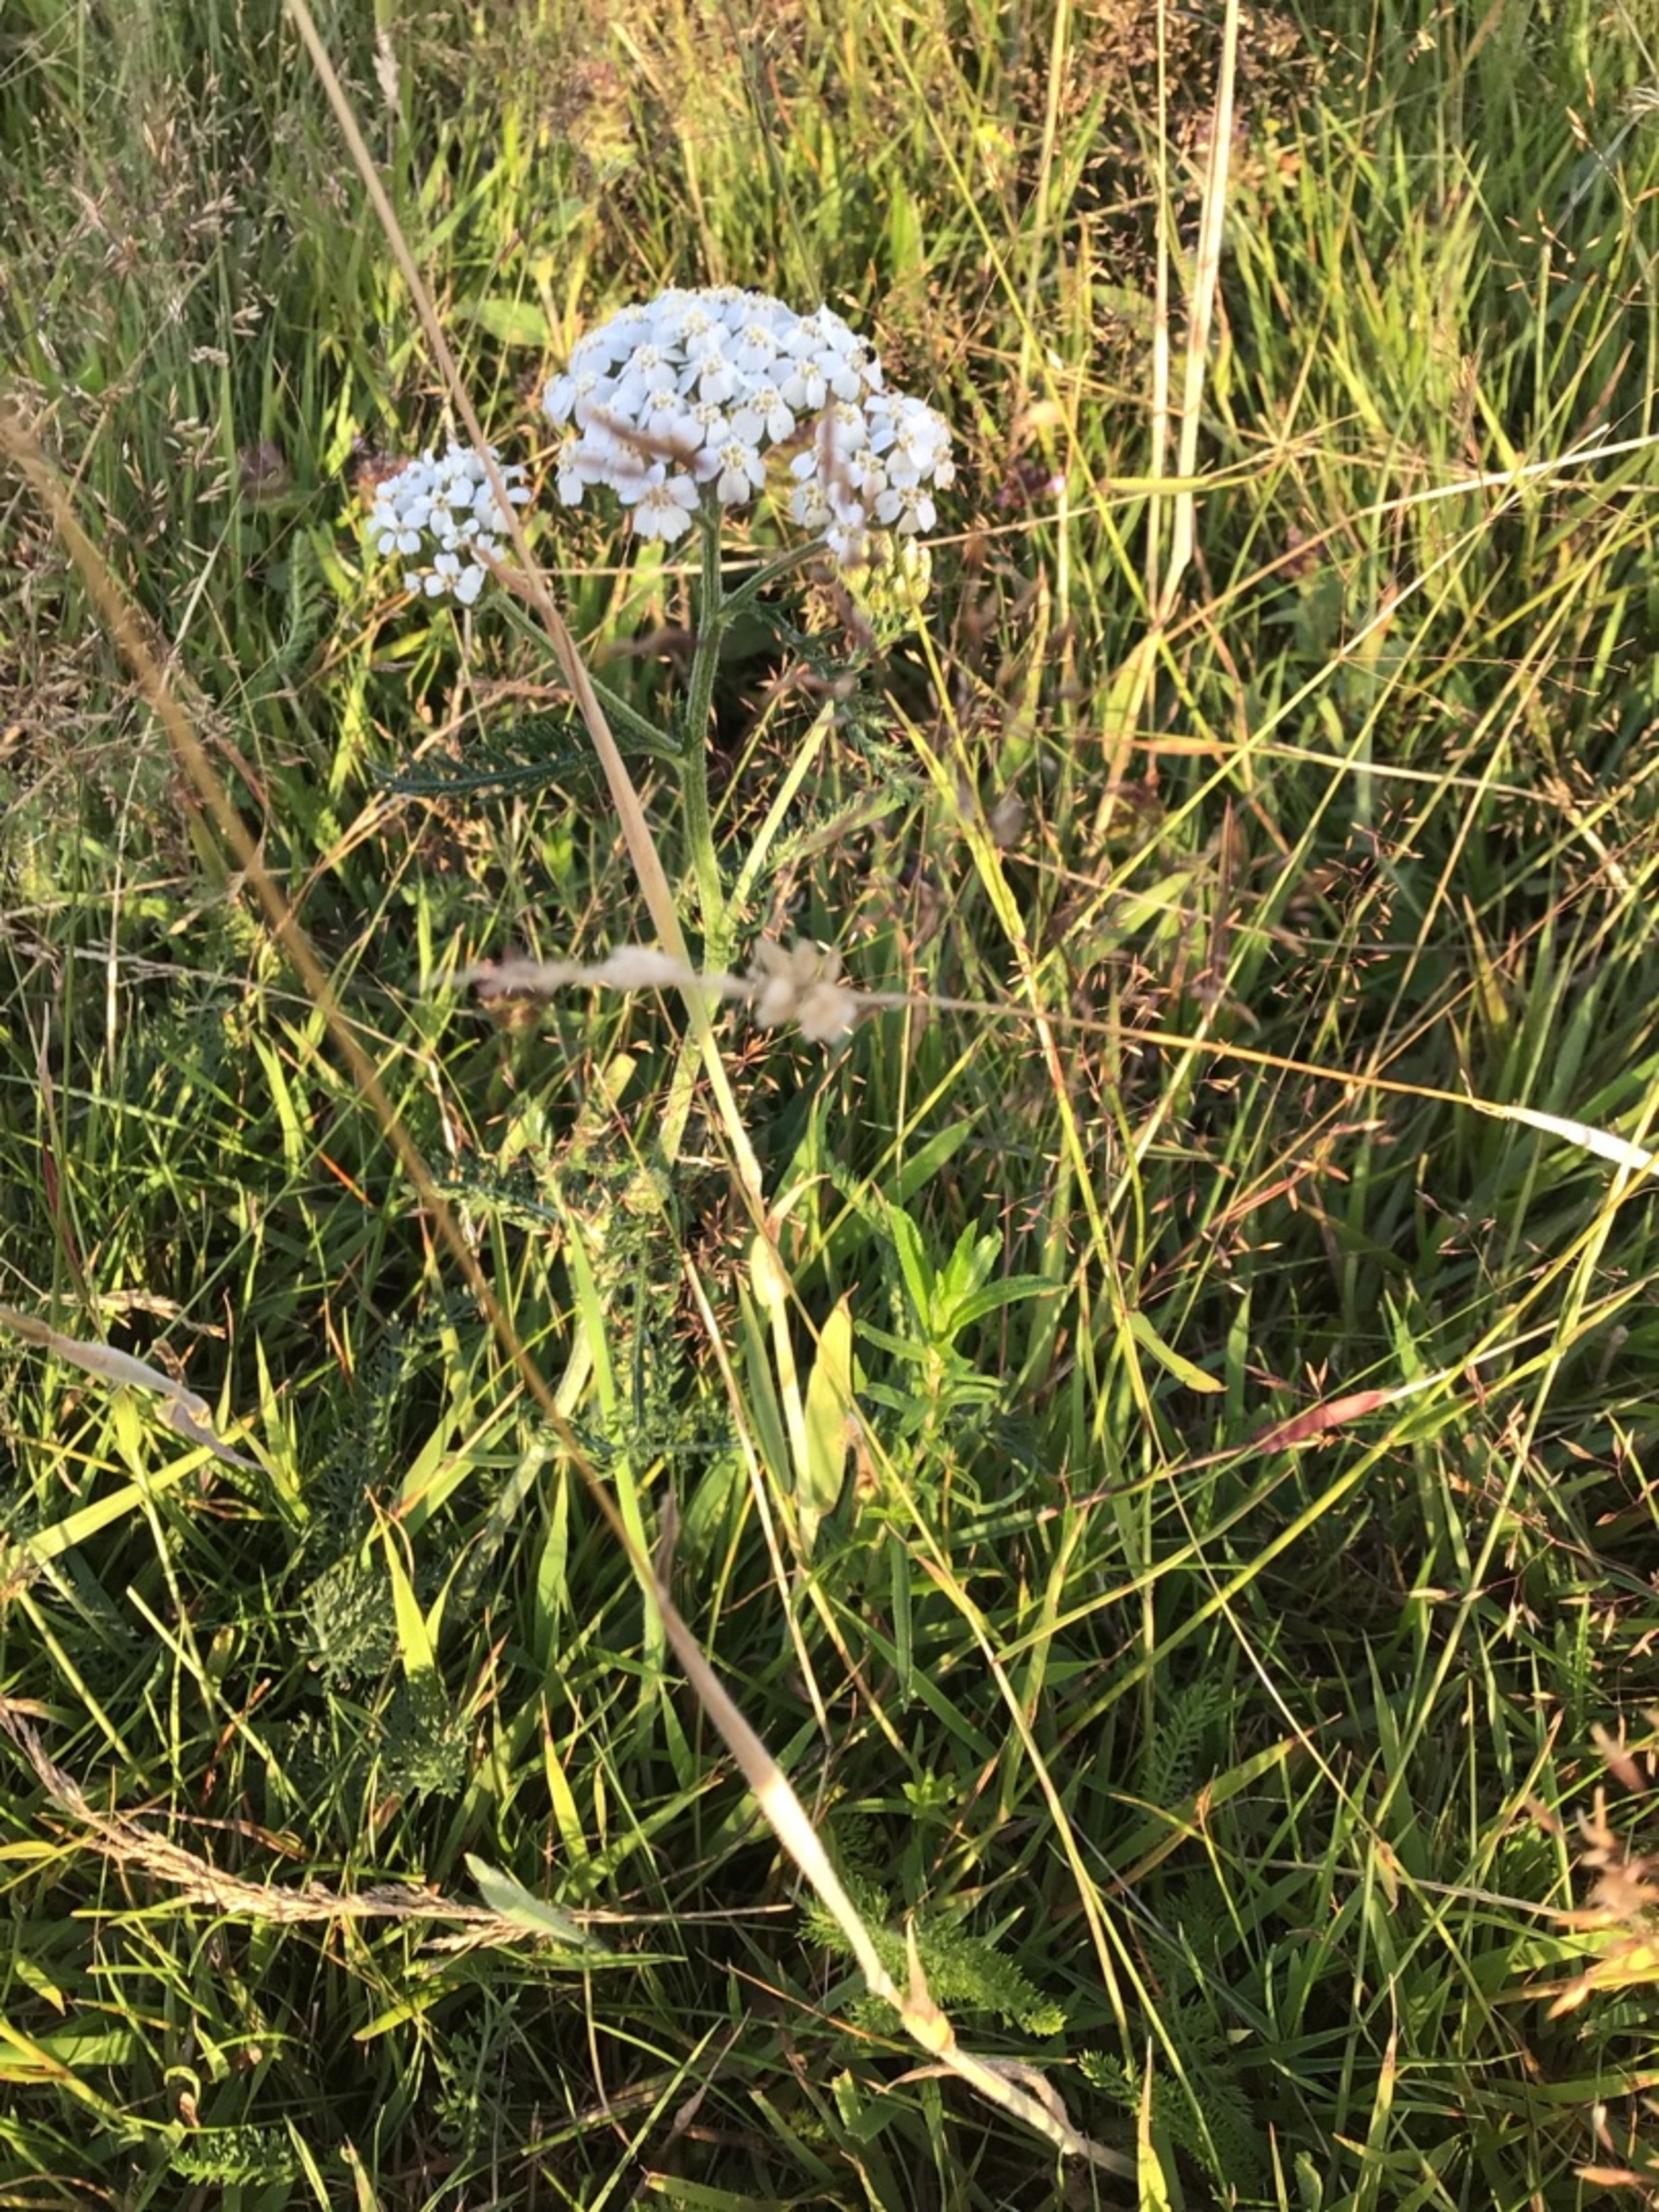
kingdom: Plantae
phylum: Tracheophyta
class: Magnoliopsida
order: Asterales
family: Asteraceae
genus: Achillea
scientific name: Achillea millefolium
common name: Almindelig røllike
